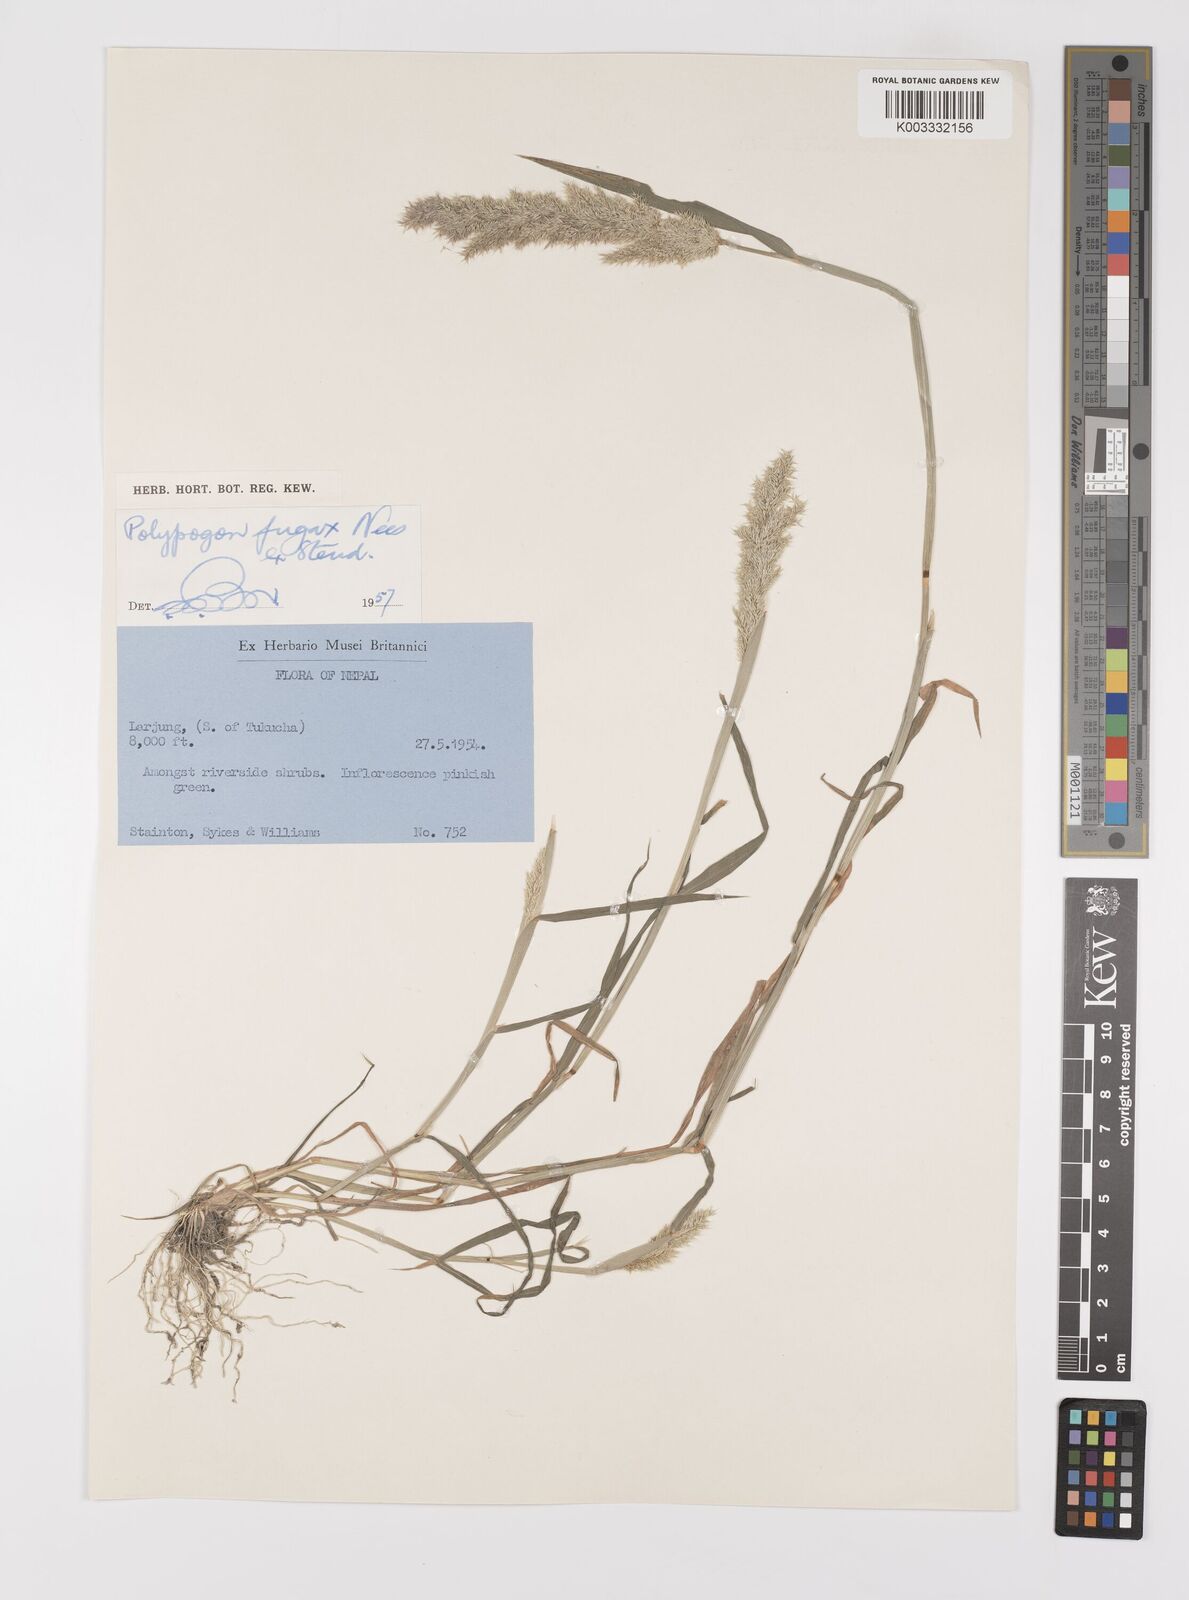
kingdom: Plantae
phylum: Tracheophyta
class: Liliopsida
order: Poales
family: Poaceae
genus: Polypogon
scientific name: Polypogon fugax
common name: Asia minor bluegrass
